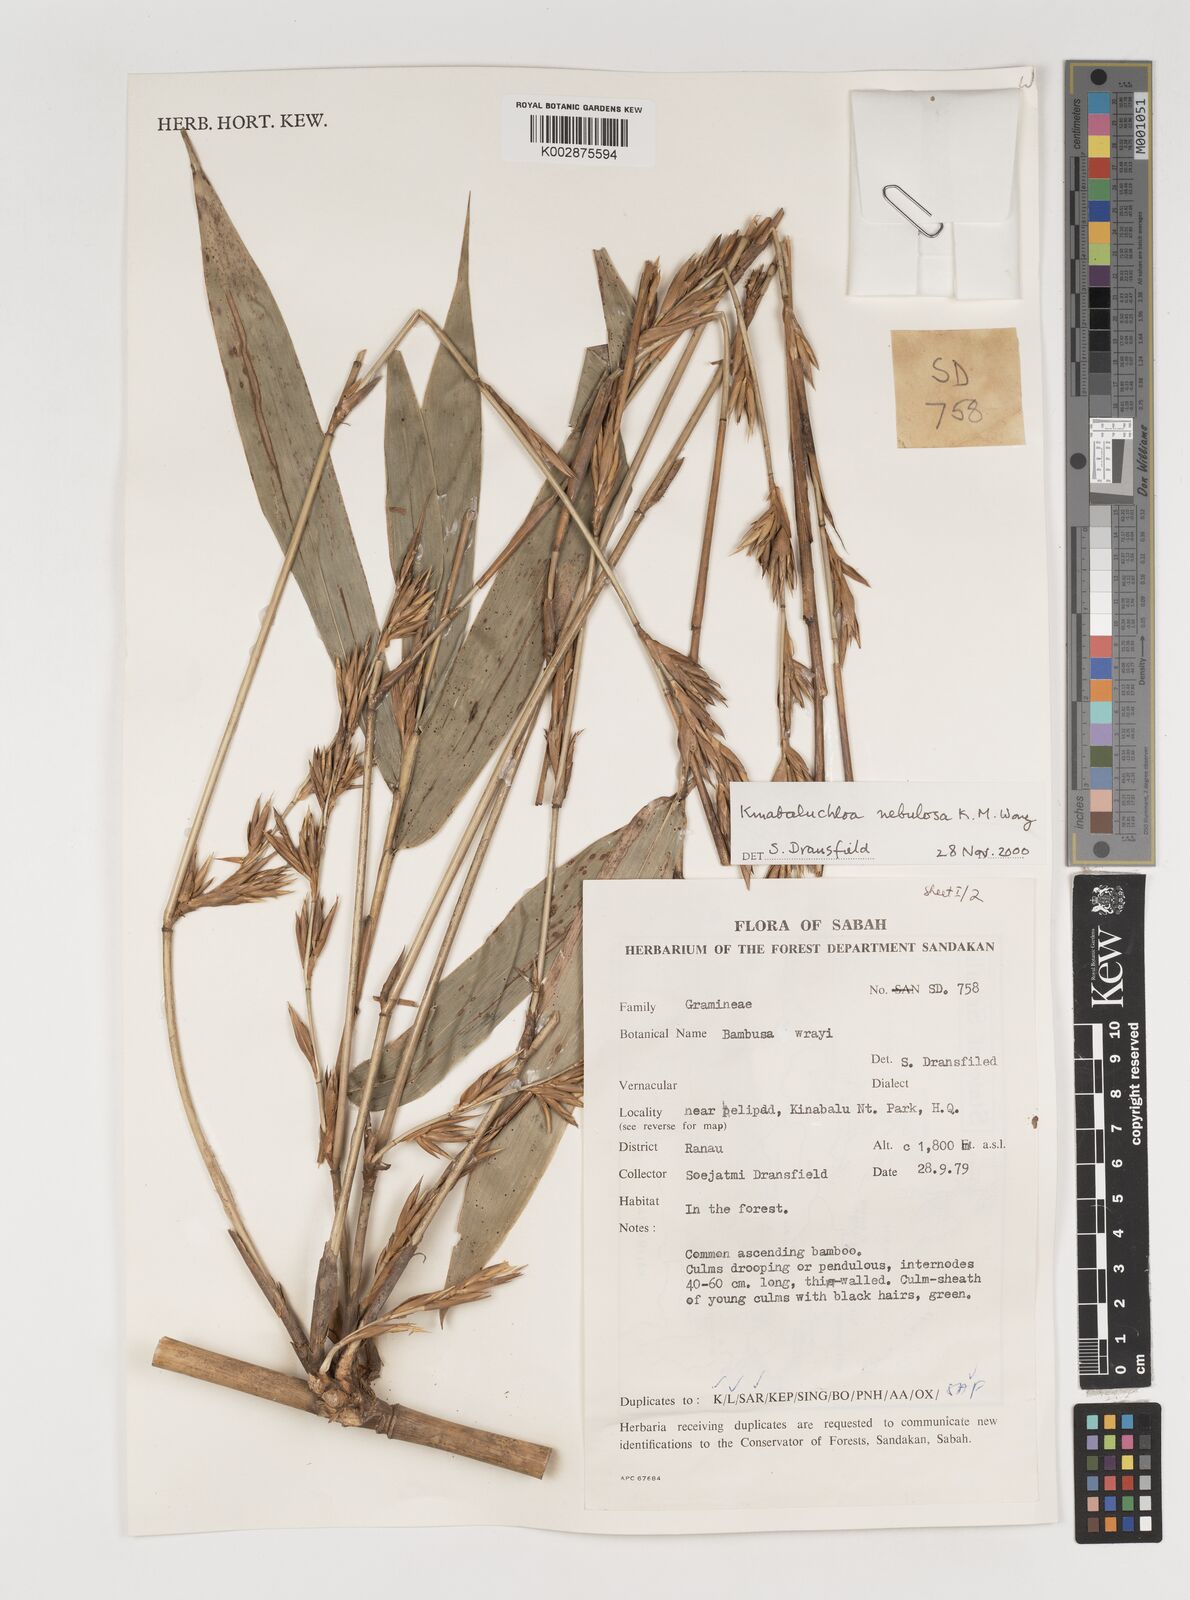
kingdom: Plantae
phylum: Tracheophyta
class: Liliopsida
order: Poales
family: Poaceae
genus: Kinabaluchloa
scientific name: Kinabaluchloa nebulosa
